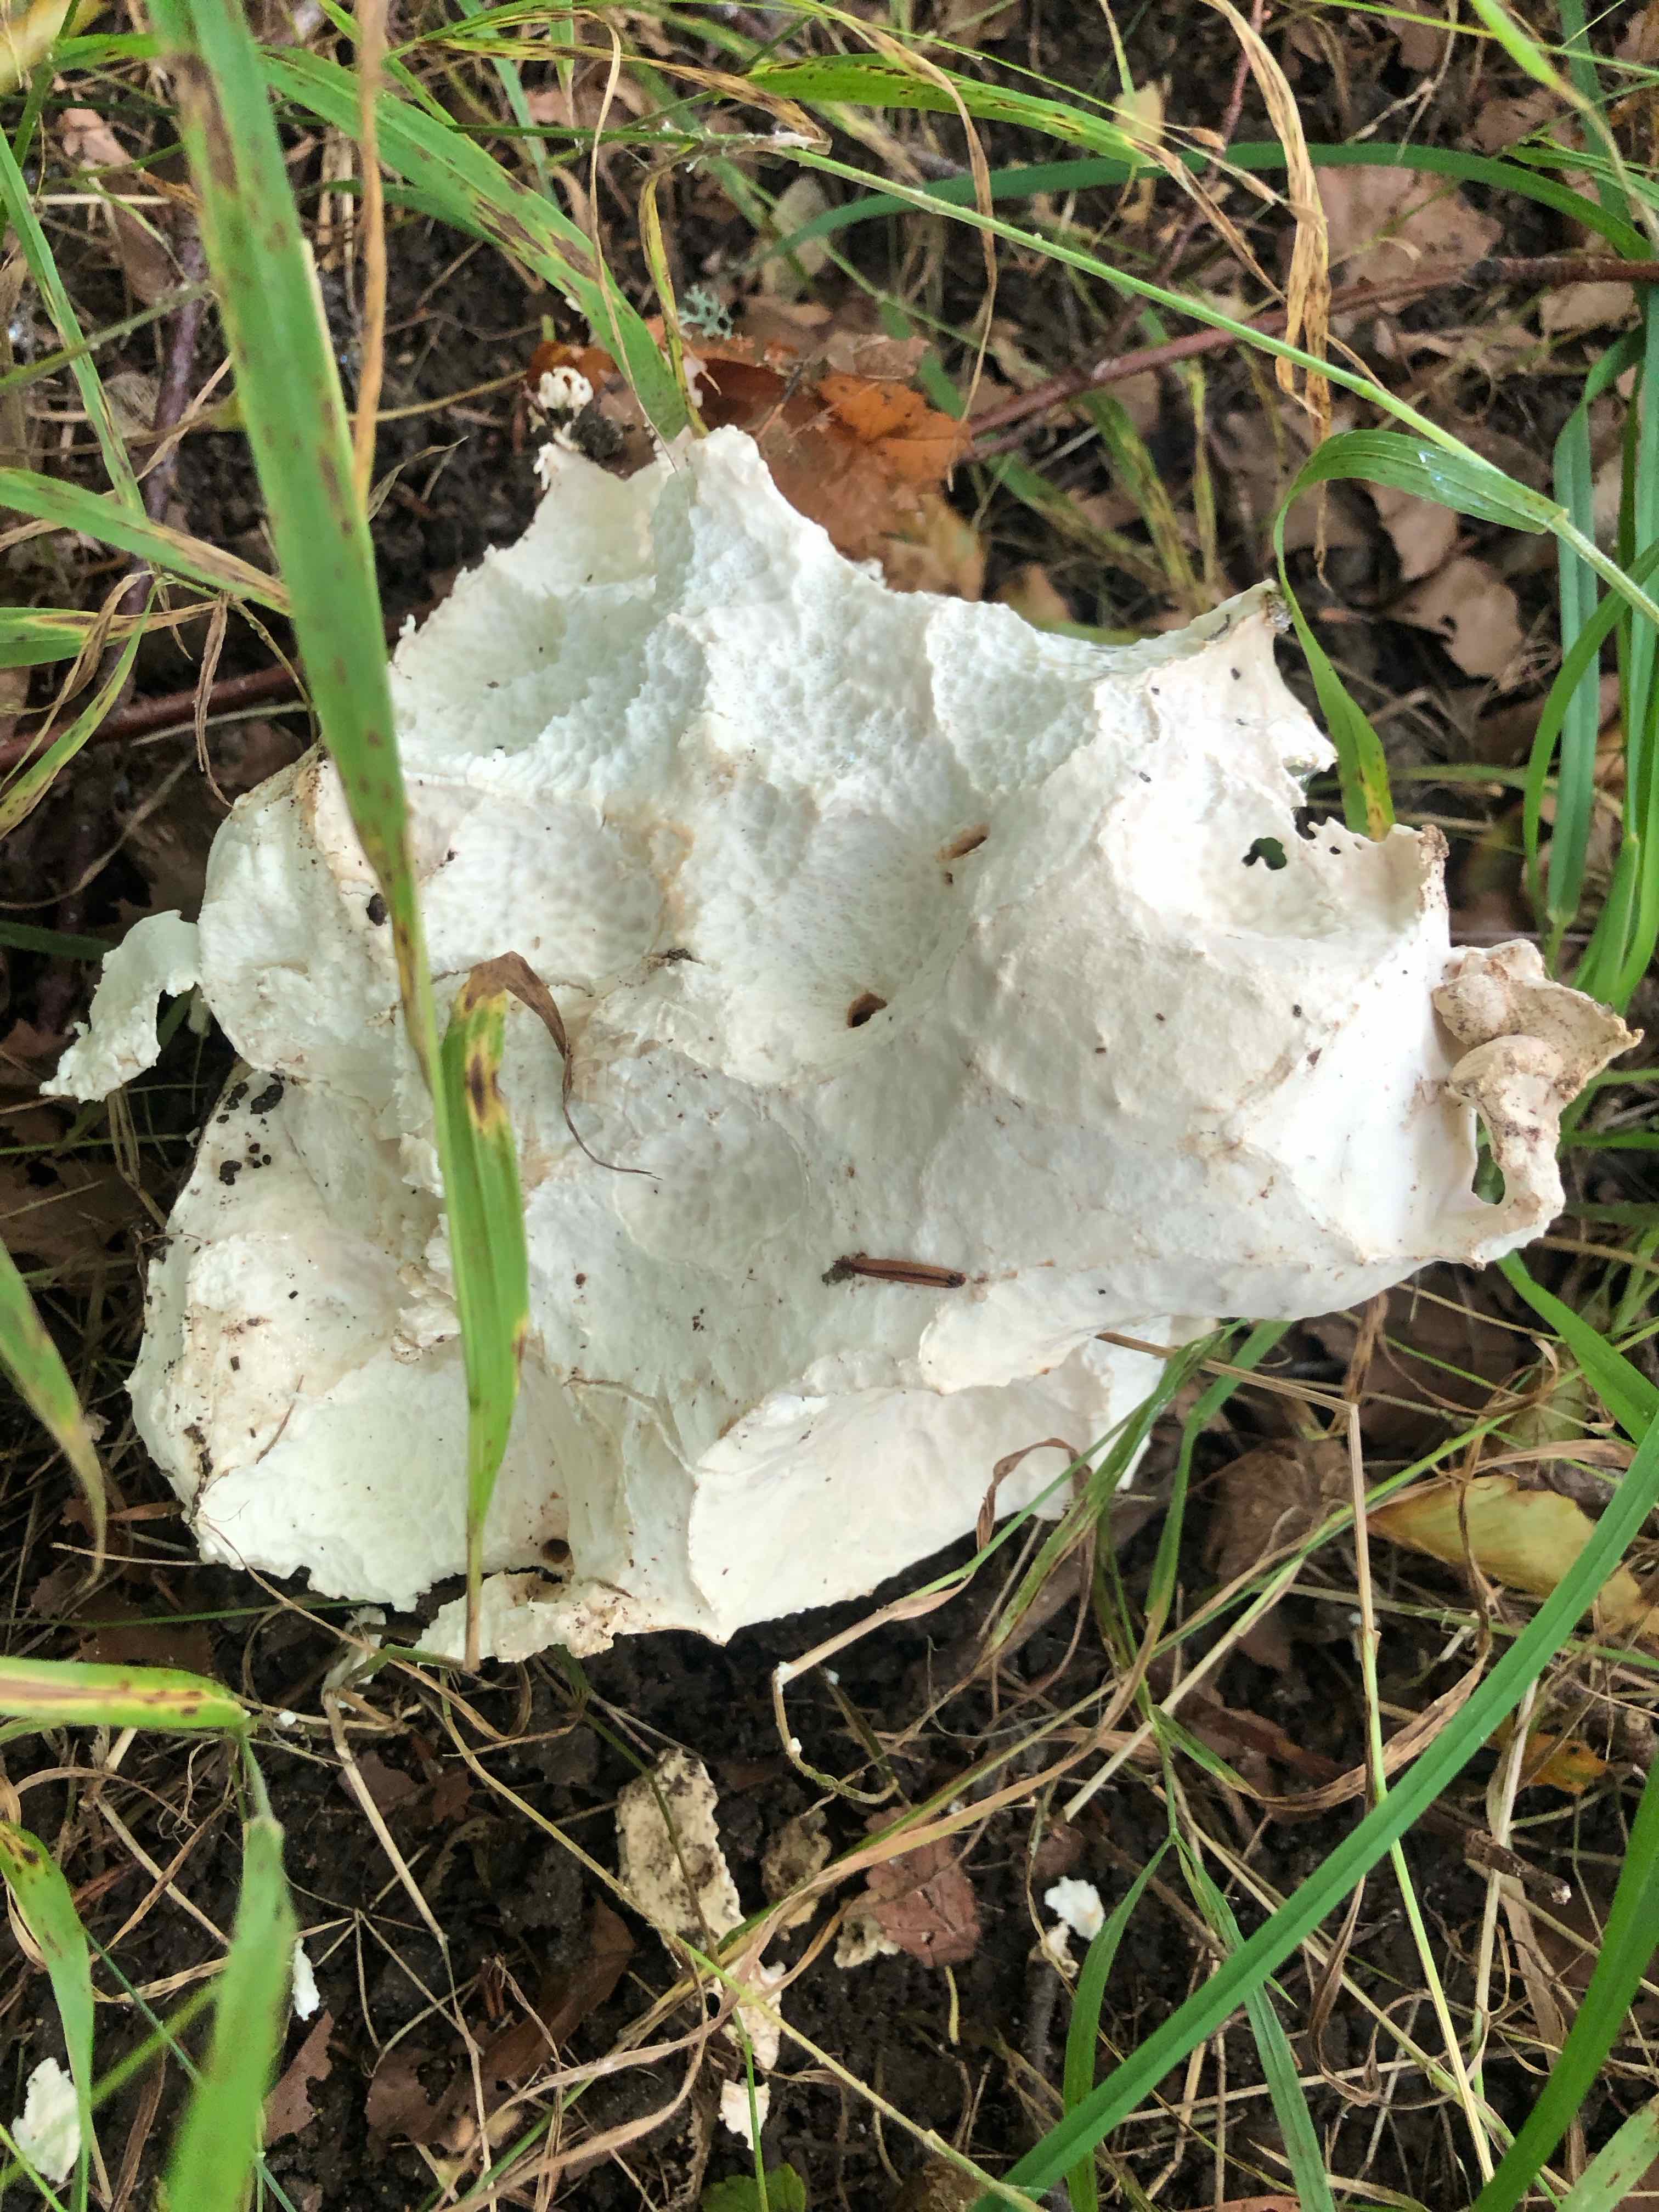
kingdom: Fungi
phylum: Basidiomycota
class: Agaricomycetes
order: Agaricales
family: Lycoperdaceae
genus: Calvatia
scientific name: Calvatia gigantea
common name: kæmpestøvbold
